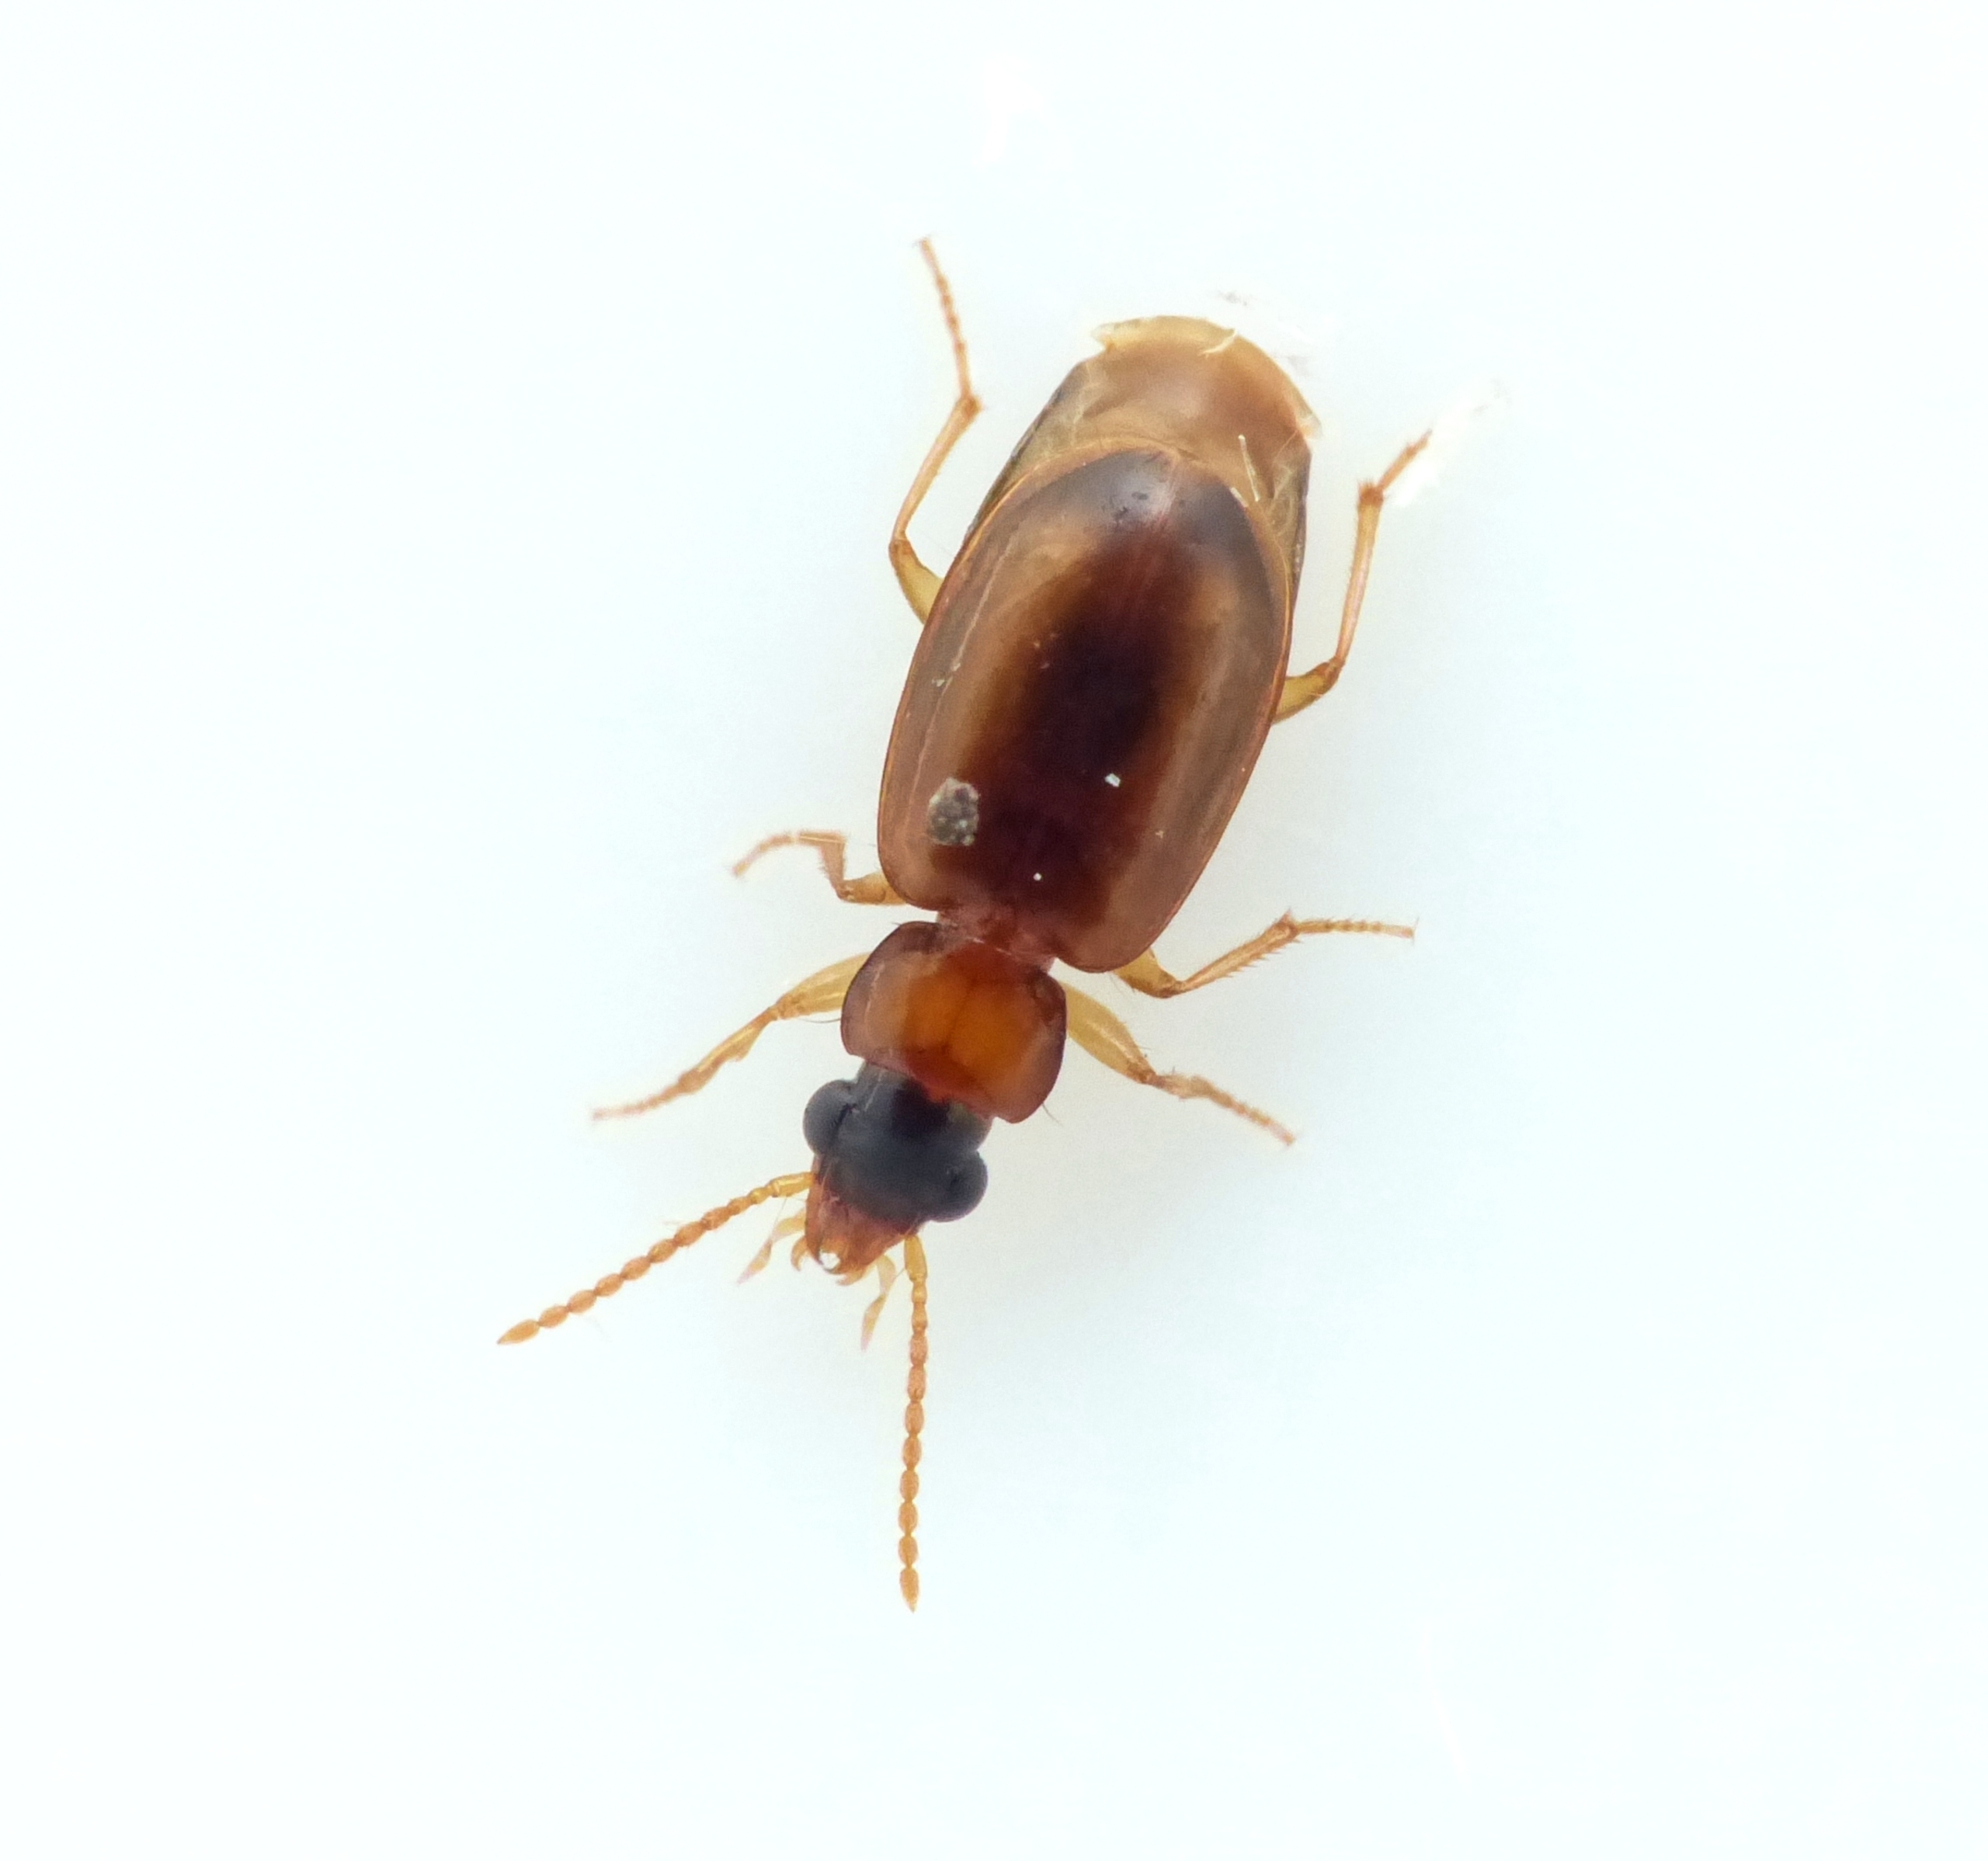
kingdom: Animalia
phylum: Arthropoda
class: Insecta
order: Coleoptera
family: Carabidae
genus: Perigona
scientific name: Perigona nigriceps
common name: Kompostløber
